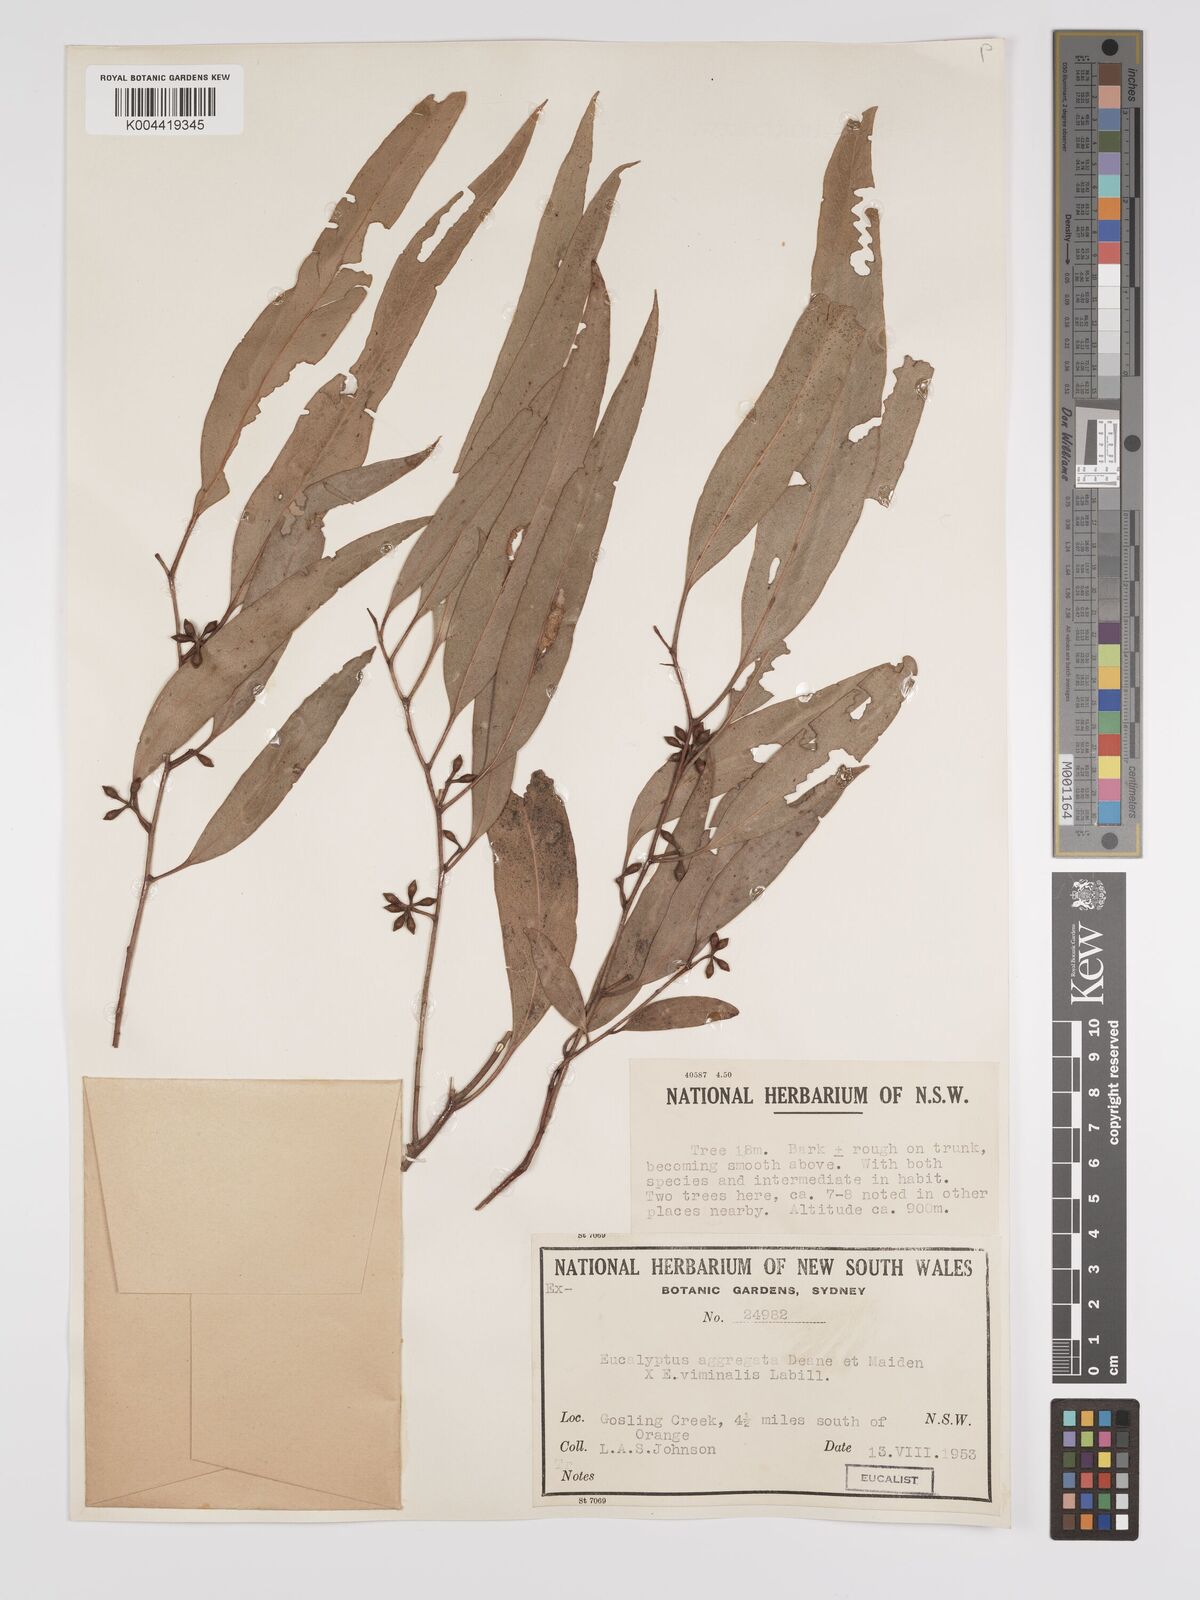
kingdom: Plantae
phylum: Tracheophyta
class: Magnoliopsida
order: Myrtales
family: Myrtaceae
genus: Eucalyptus
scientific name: Eucalyptus aggregata
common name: Black gum
